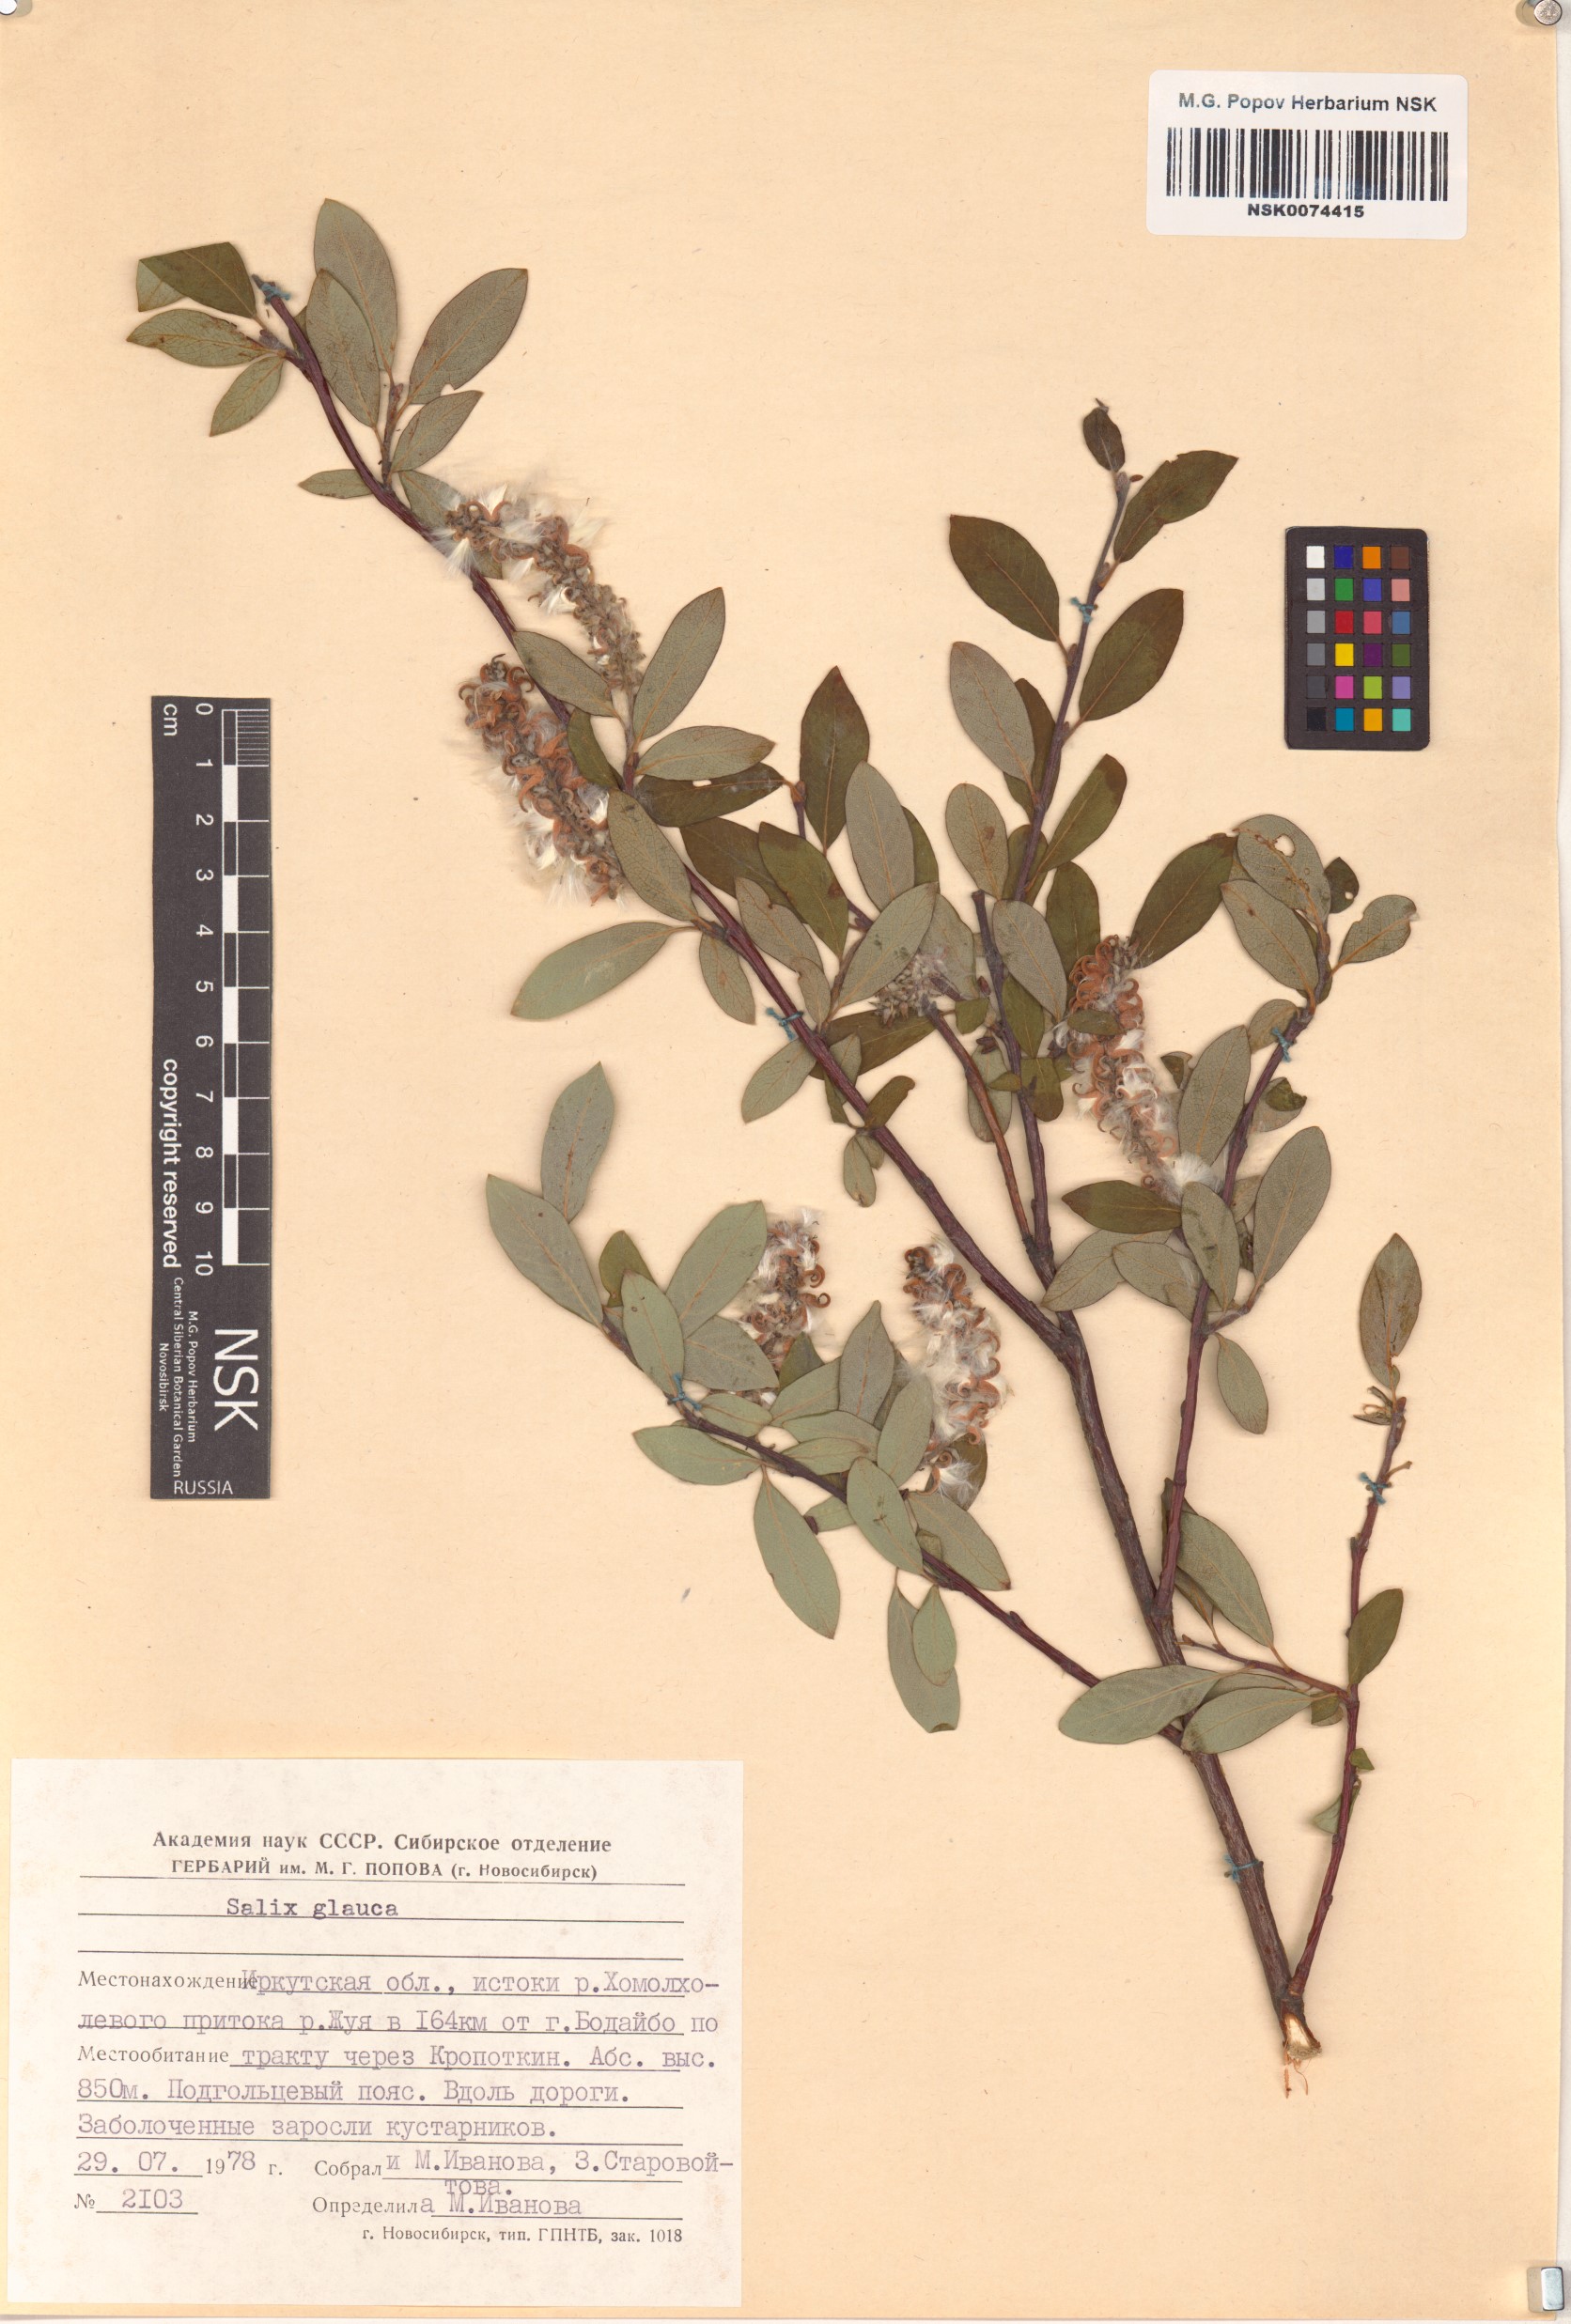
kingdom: Plantae
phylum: Tracheophyta
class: Magnoliopsida
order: Malpighiales
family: Salicaceae
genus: Salix
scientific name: Salix glauca
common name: Glaucous willow
